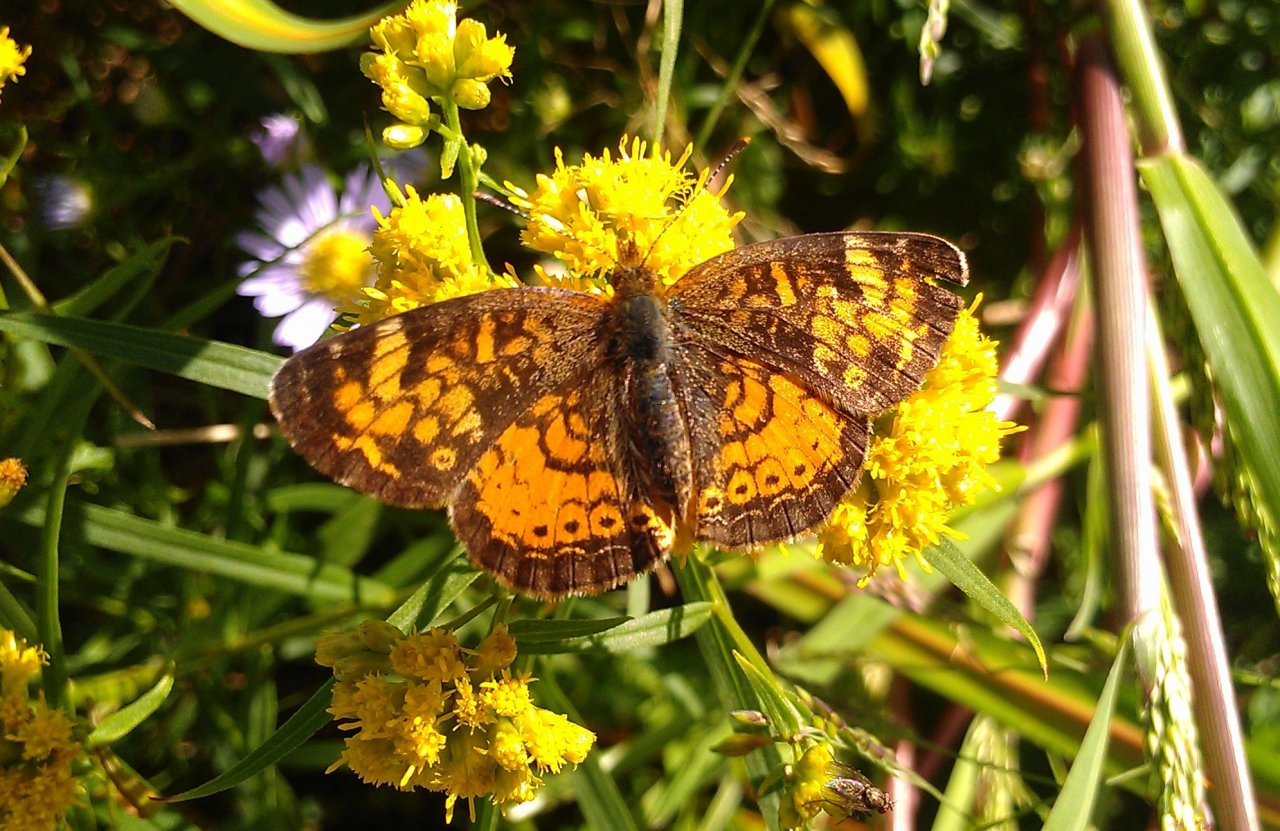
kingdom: Animalia
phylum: Arthropoda
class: Insecta
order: Lepidoptera
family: Nymphalidae
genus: Phyciodes
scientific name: Phyciodes tharos
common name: Northern Crescent
